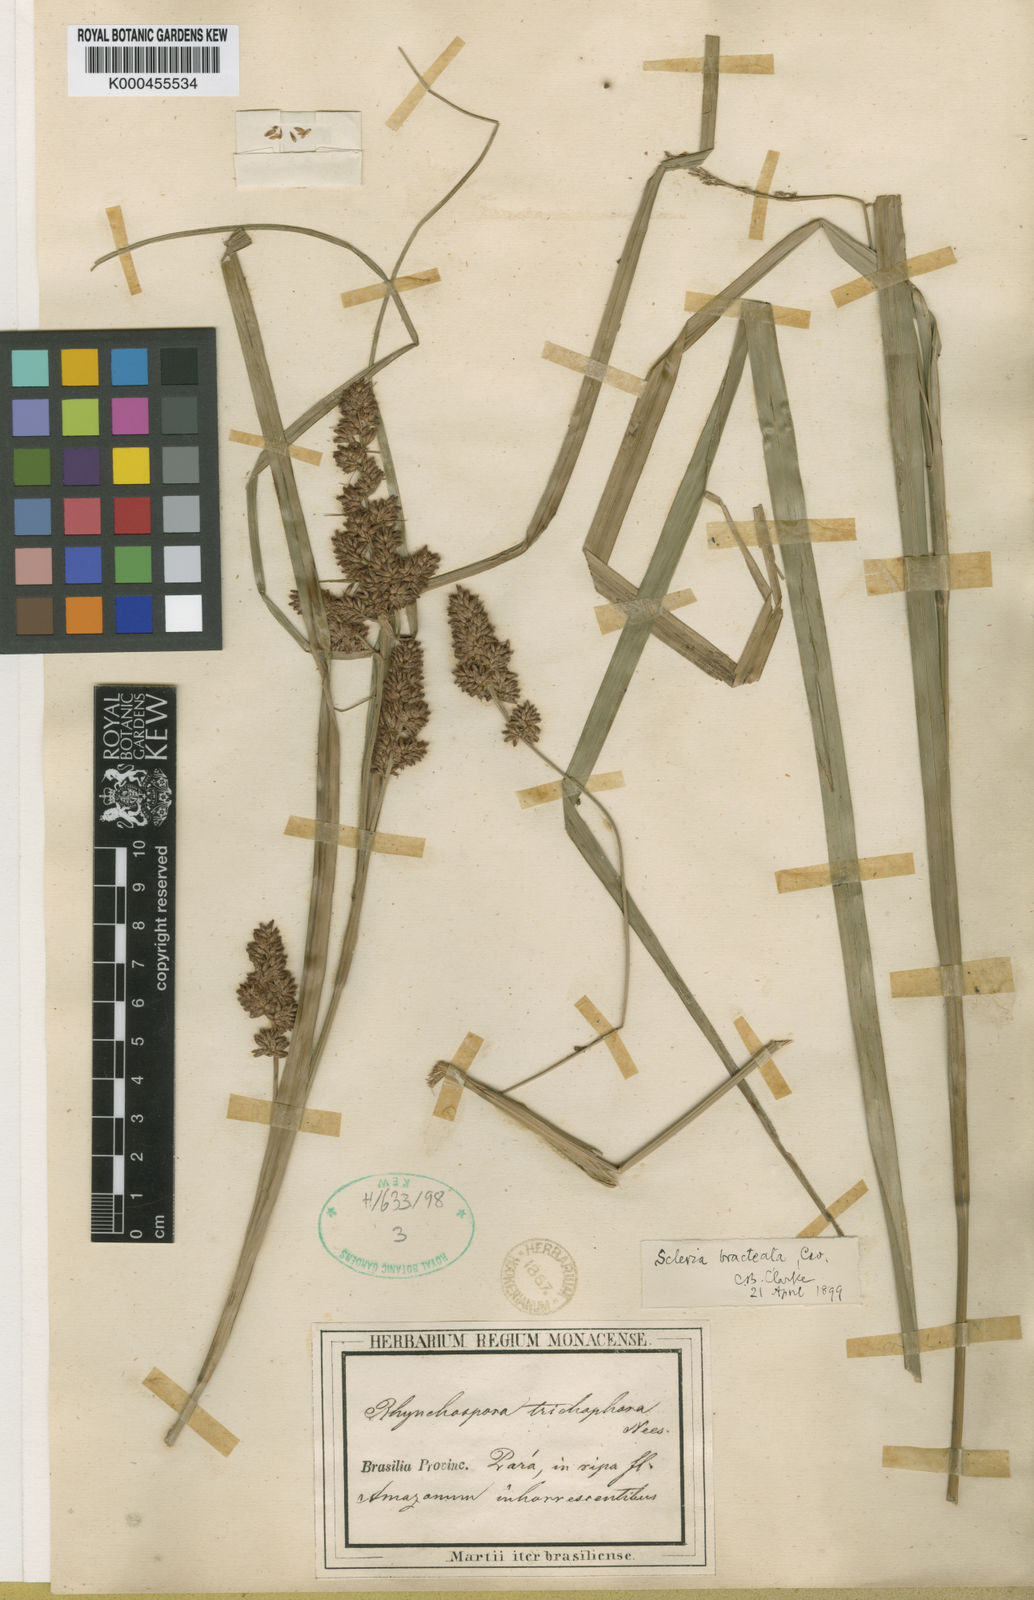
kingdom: Plantae
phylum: Tracheophyta
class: Liliopsida
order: Poales
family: Cyperaceae
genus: Scleria
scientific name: Scleria bracteata
